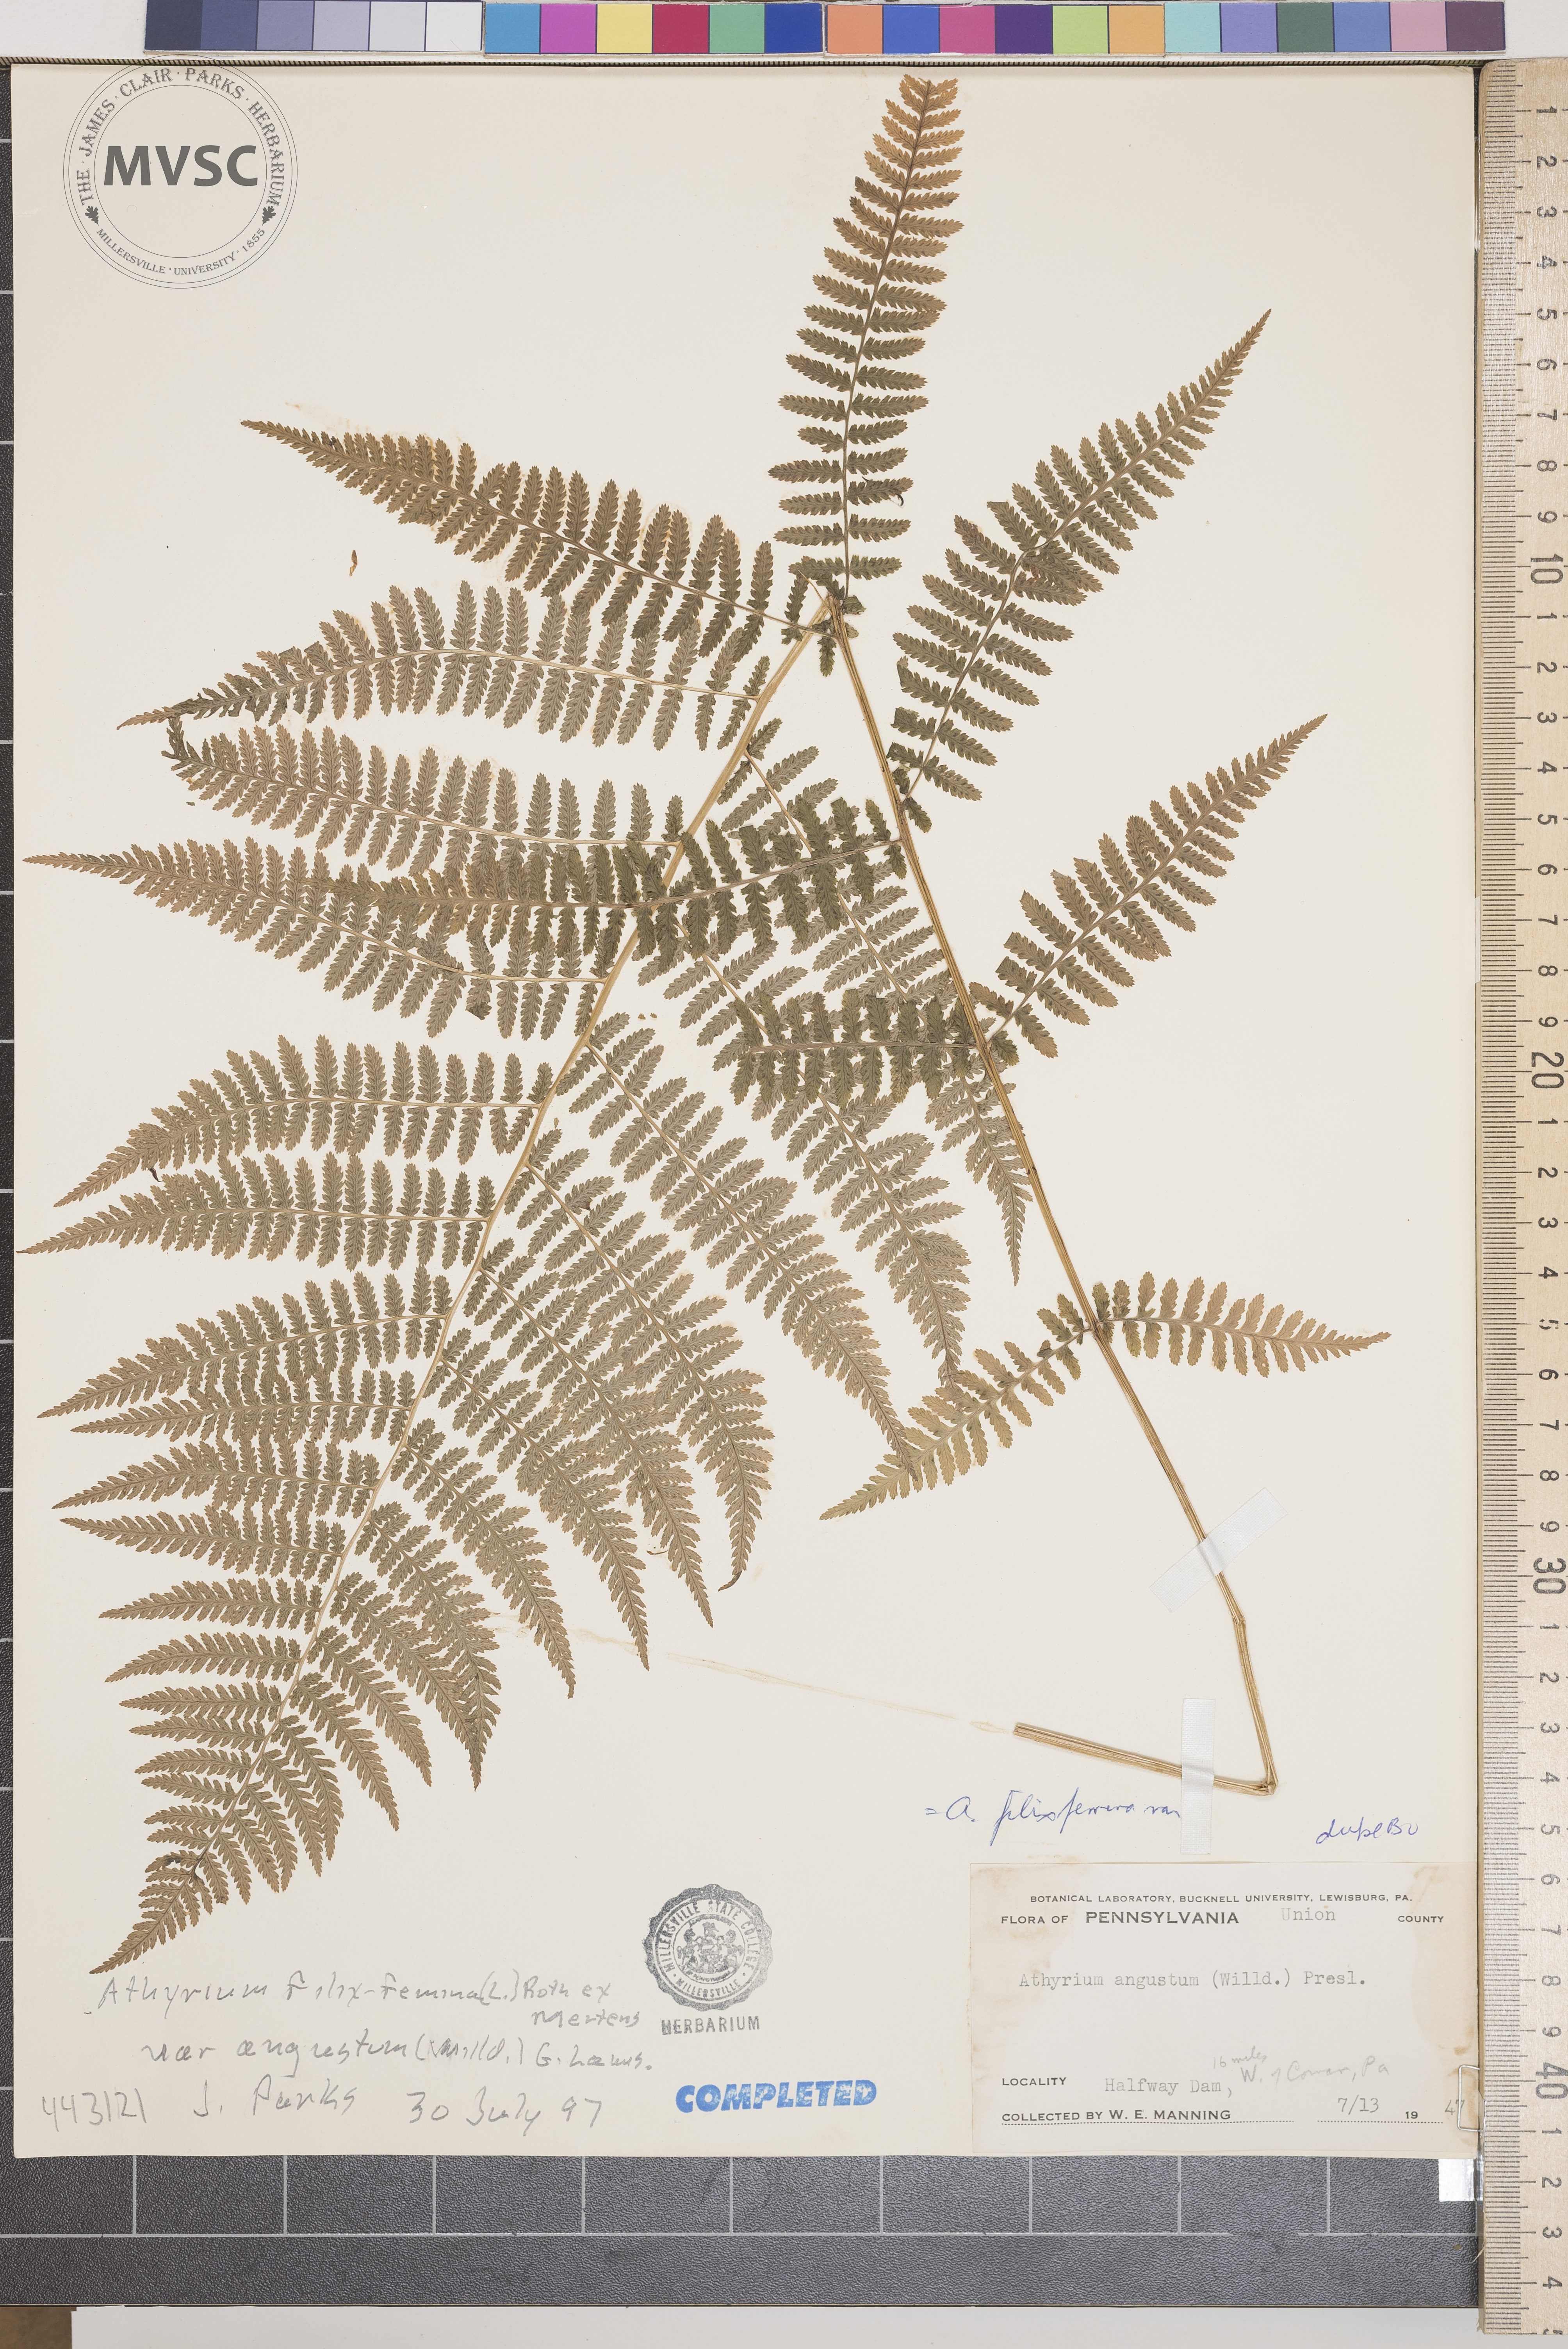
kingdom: Plantae
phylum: Tracheophyta
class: Polypodiopsida
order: Polypodiales
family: Athyriaceae
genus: Athyrium
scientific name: Athyrium filix-femina
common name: Lady fern
